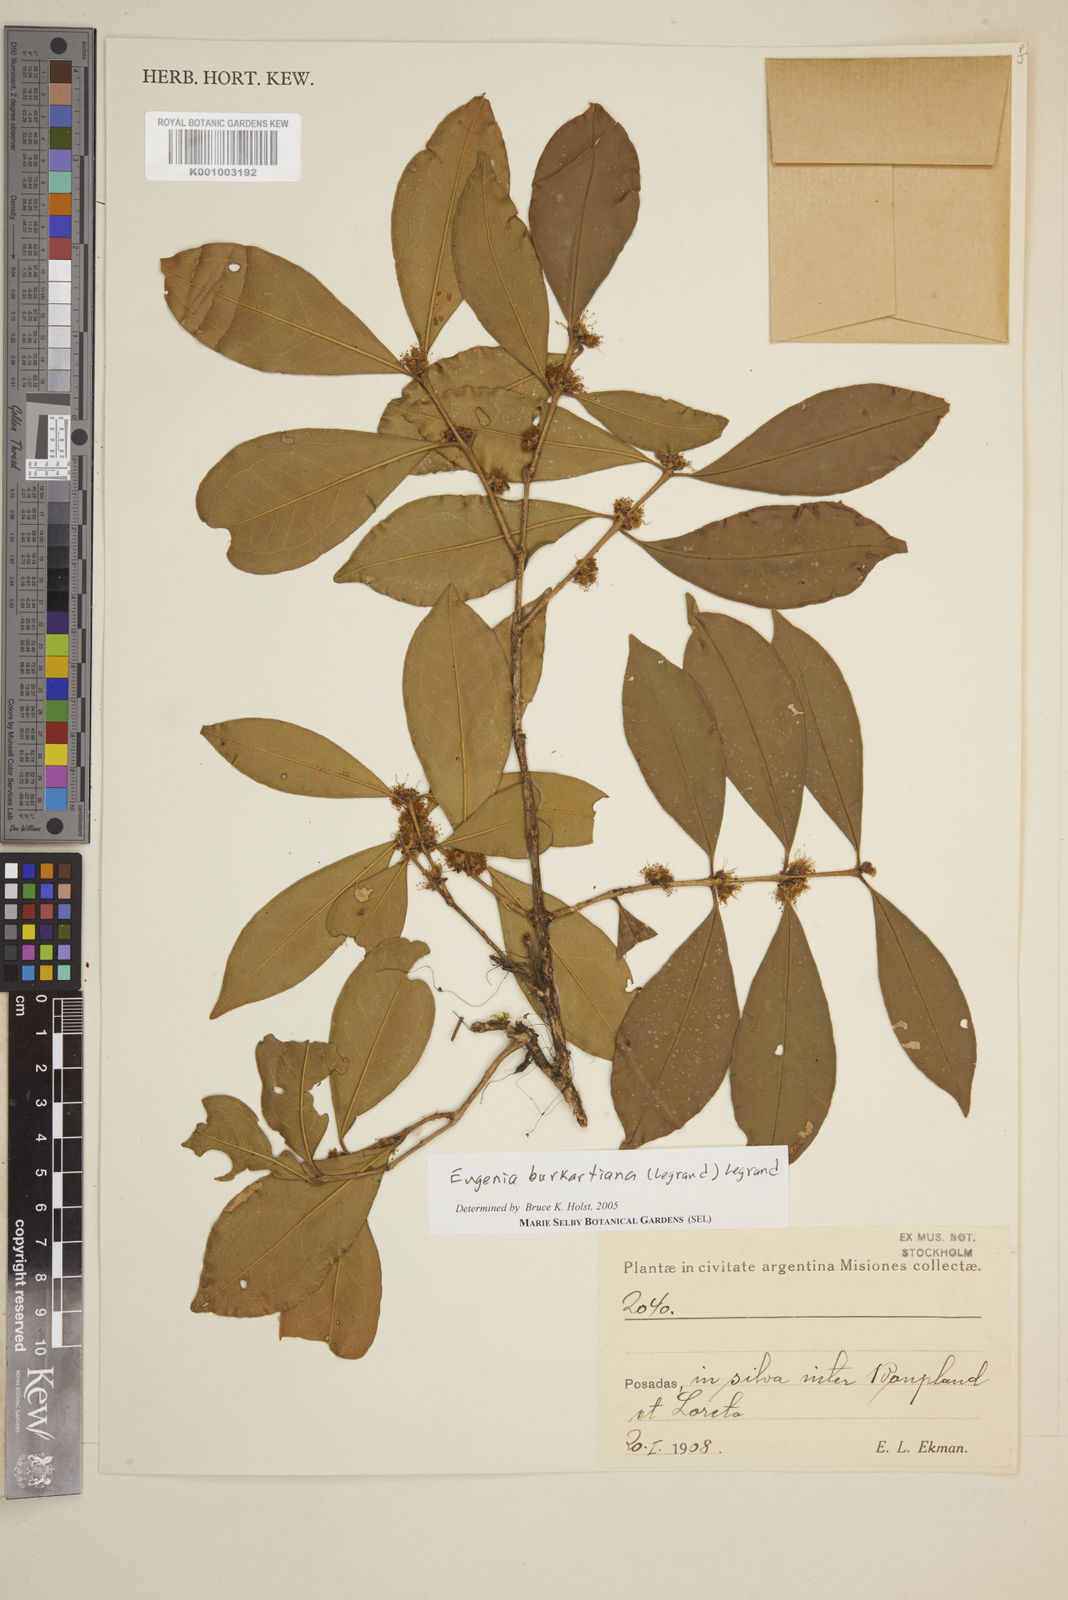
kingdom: Plantae
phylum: Tracheophyta
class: Magnoliopsida
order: Myrtales
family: Myrtaceae
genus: Eugenia
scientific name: Eugenia burkartiana
